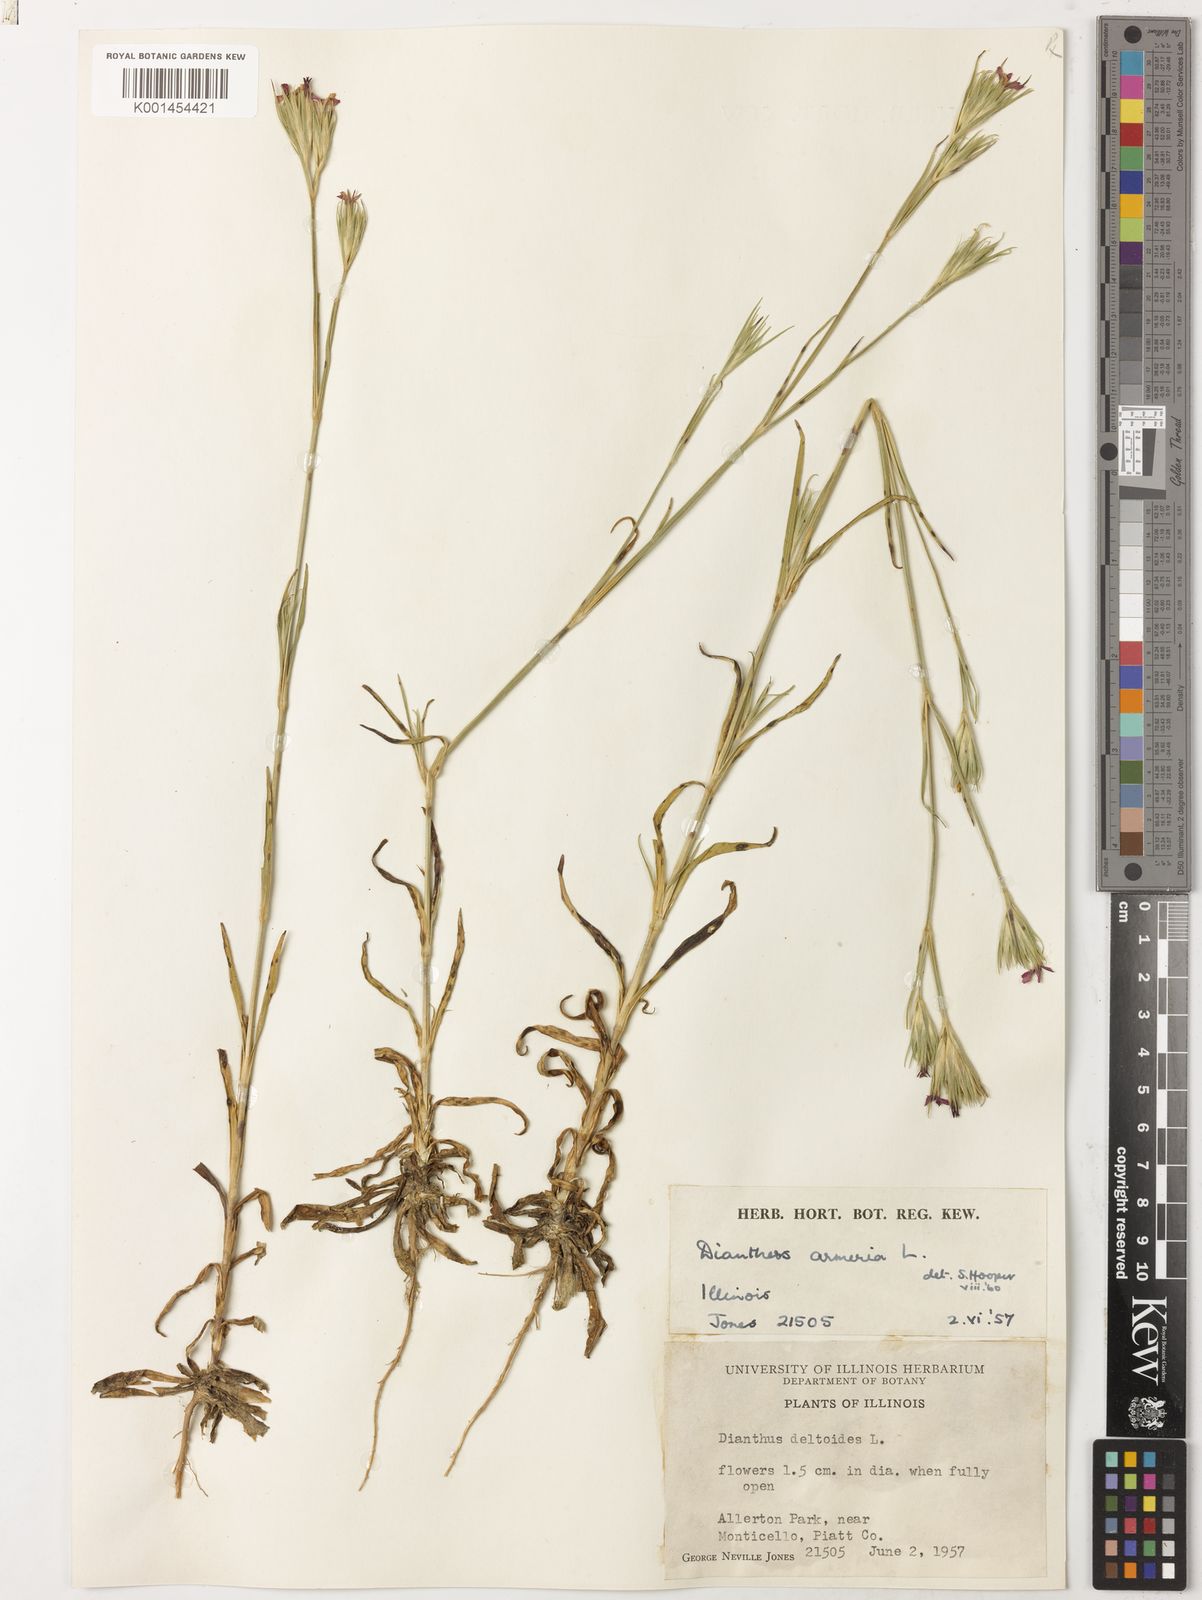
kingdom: Plantae
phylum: Tracheophyta
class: Magnoliopsida
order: Caryophyllales
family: Caryophyllaceae
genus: Dianthus
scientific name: Dianthus armeria
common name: Deptford pink
